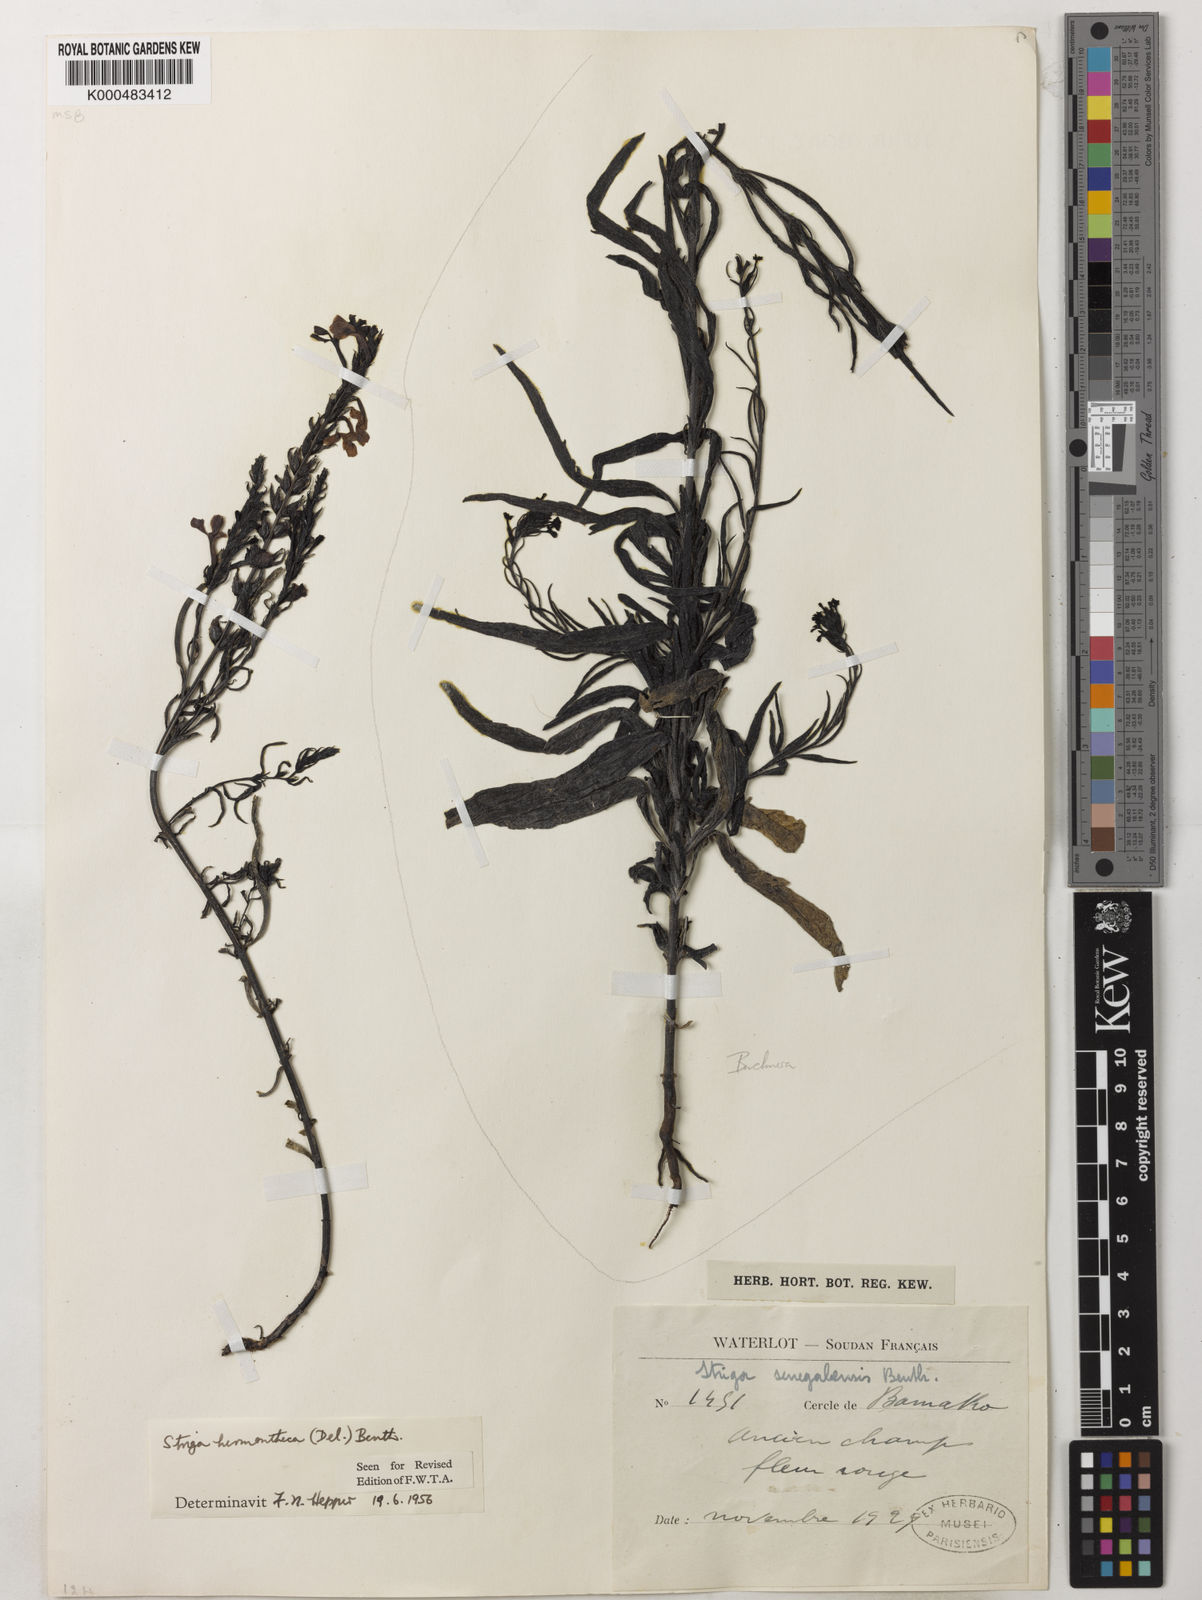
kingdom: Plantae
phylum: Tracheophyta
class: Magnoliopsida
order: Lamiales
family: Orobanchaceae
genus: Striga
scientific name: Striga hermonthica
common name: Purple witchweed
